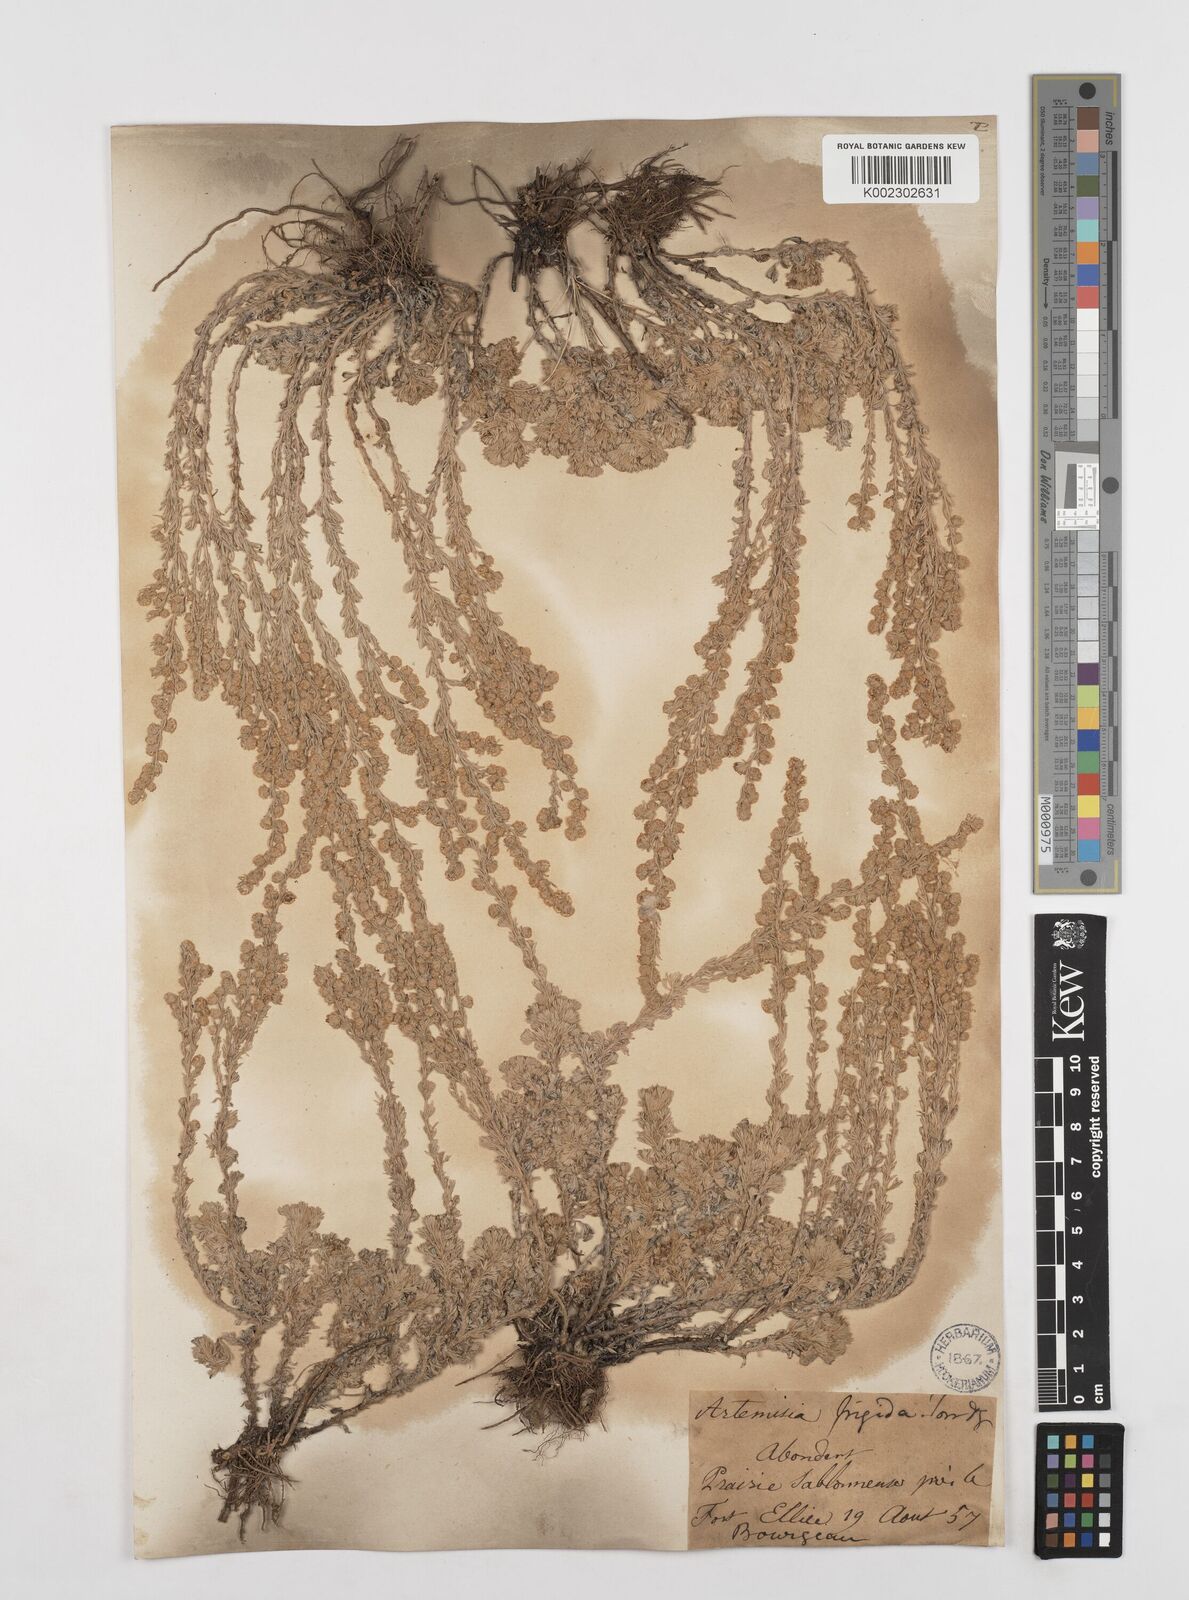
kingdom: Plantae
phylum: Tracheophyta
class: Magnoliopsida
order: Asterales
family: Asteraceae
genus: Artemisia
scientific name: Artemisia frigida
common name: Prairie sagewort
